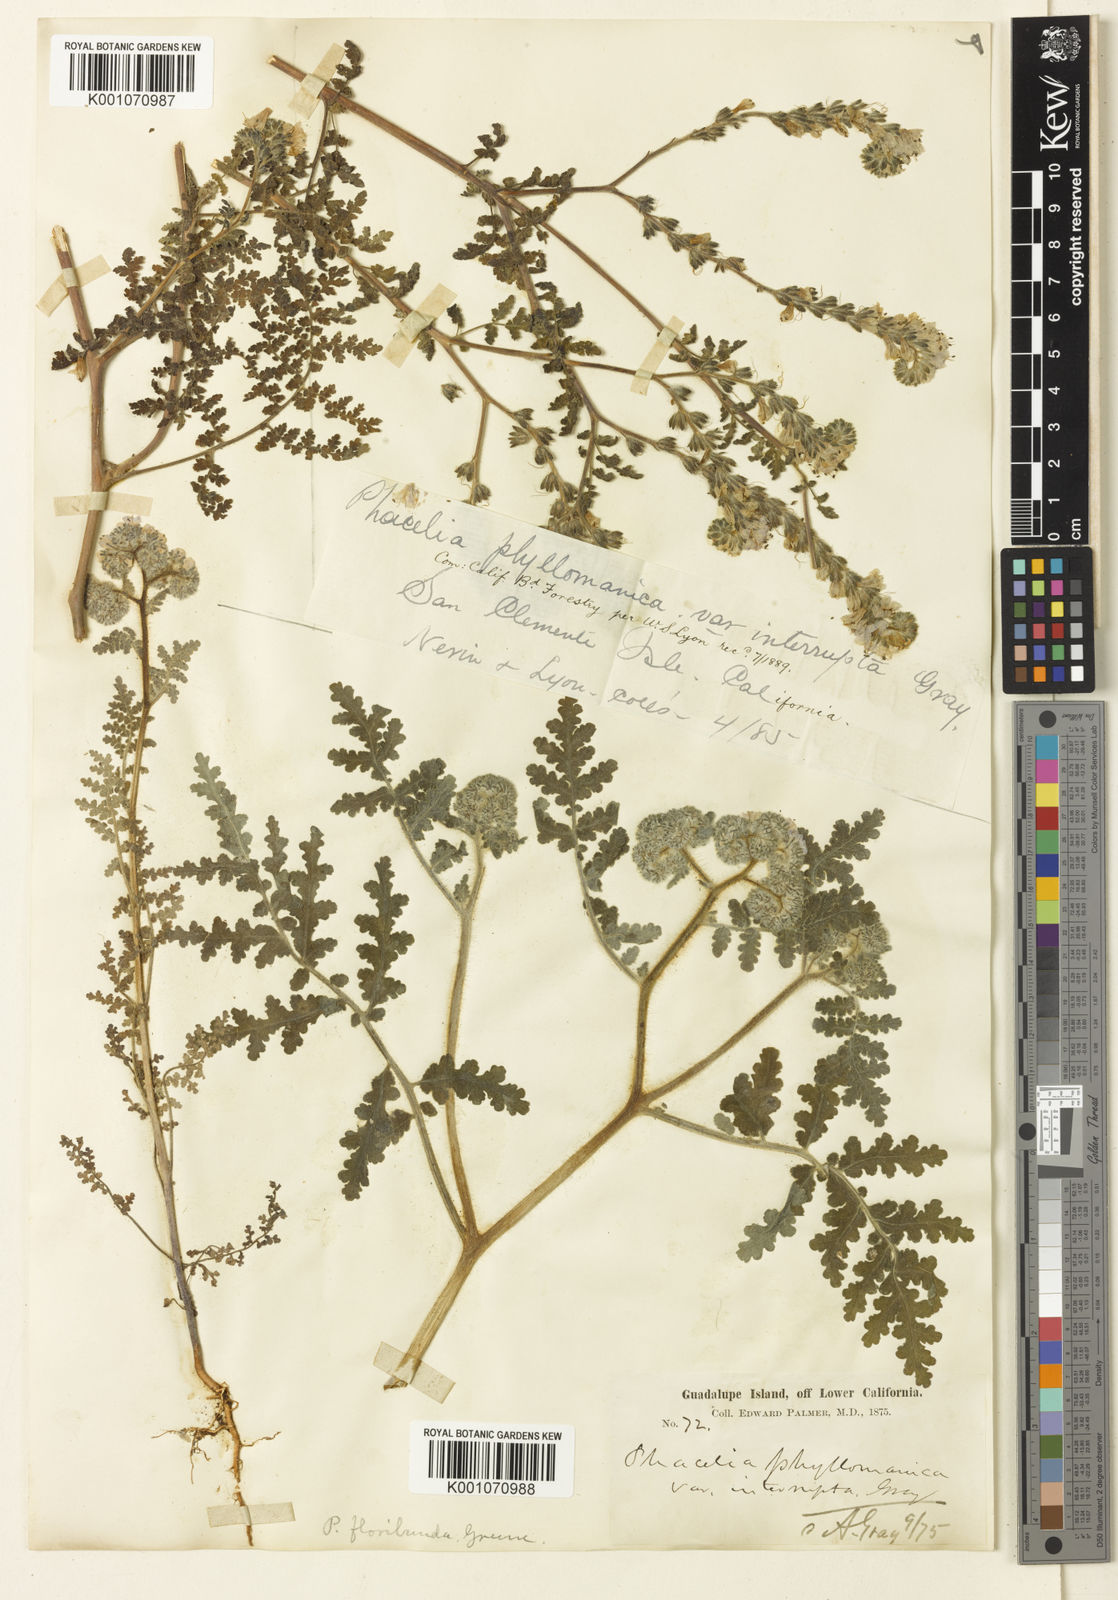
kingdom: Plantae
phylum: Tracheophyta
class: Magnoliopsida
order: Boraginales
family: Hydrophyllaceae
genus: Phacelia
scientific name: Phacelia floribunda
